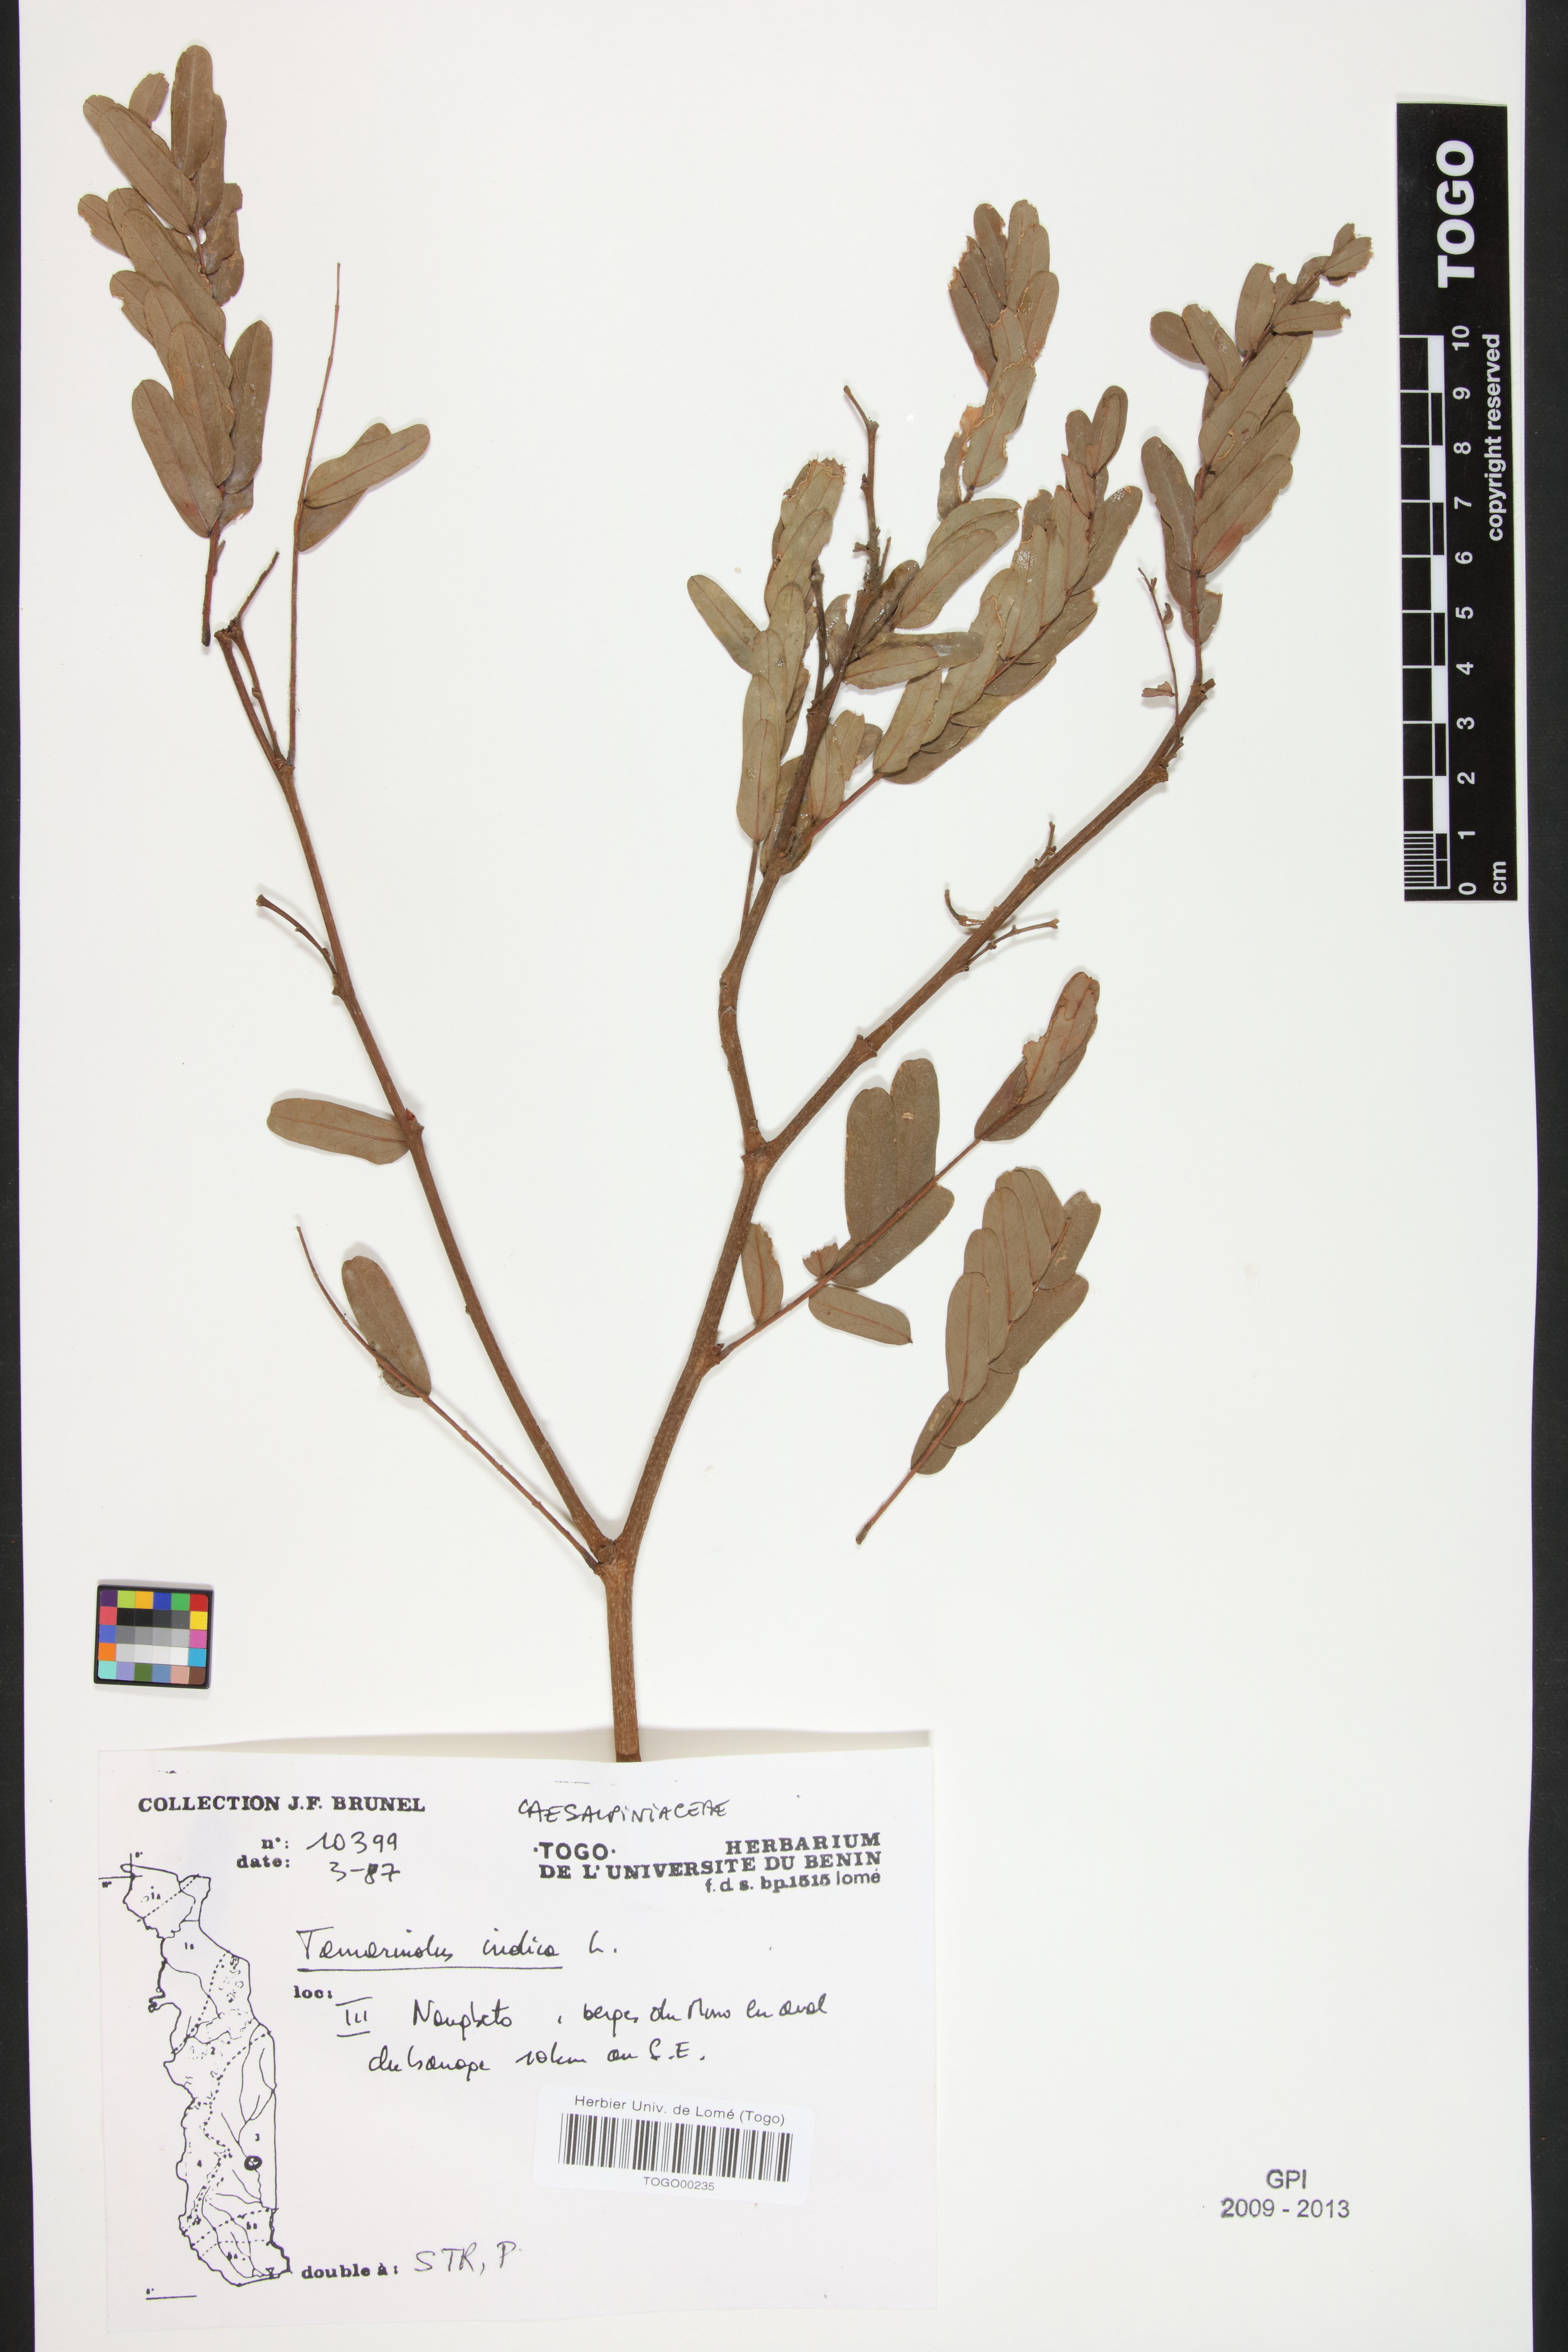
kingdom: Plantae
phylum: Tracheophyta
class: Magnoliopsida
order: Fabales
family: Fabaceae
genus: Tamarindus
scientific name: Tamarindus indica
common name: Tamarind
